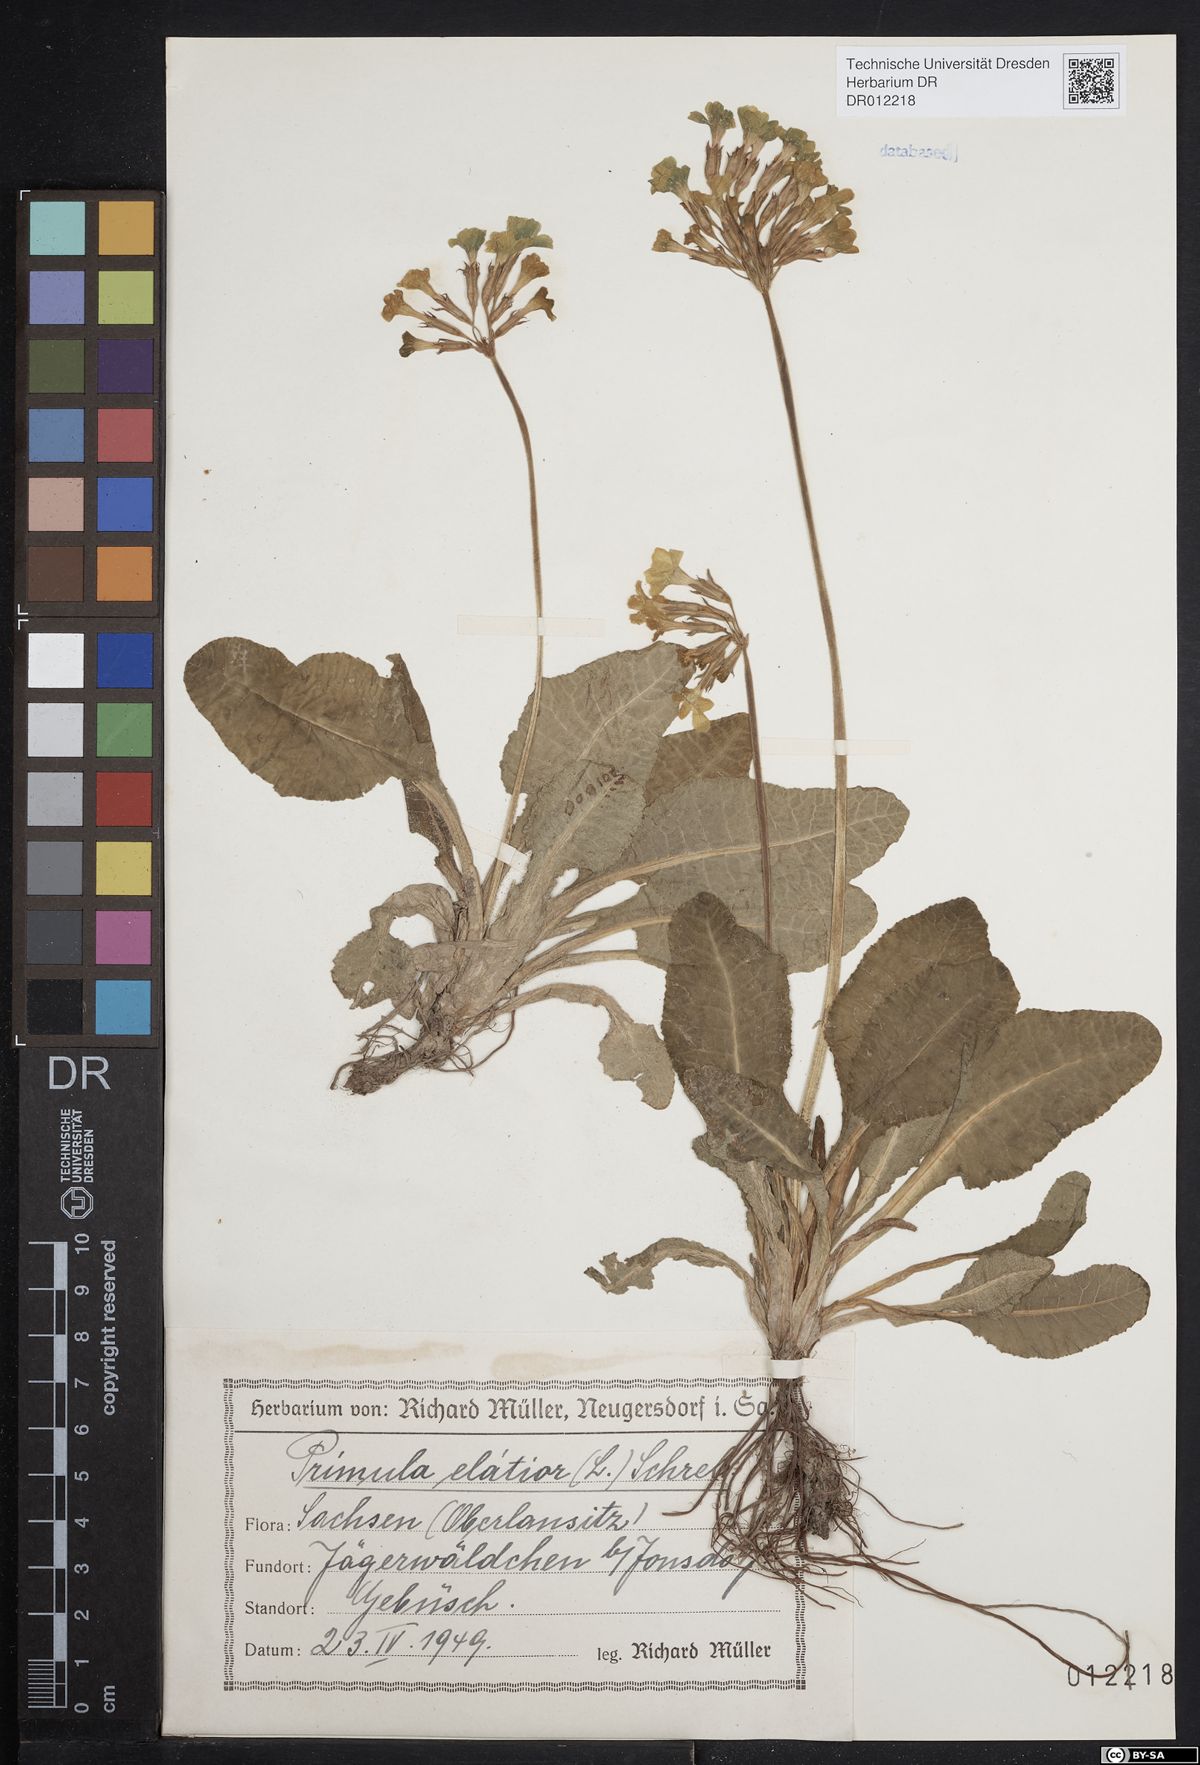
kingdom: Plantae
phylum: Tracheophyta
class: Magnoliopsida
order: Ericales
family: Primulaceae
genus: Primula
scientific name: Primula elatior
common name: Oxlip
